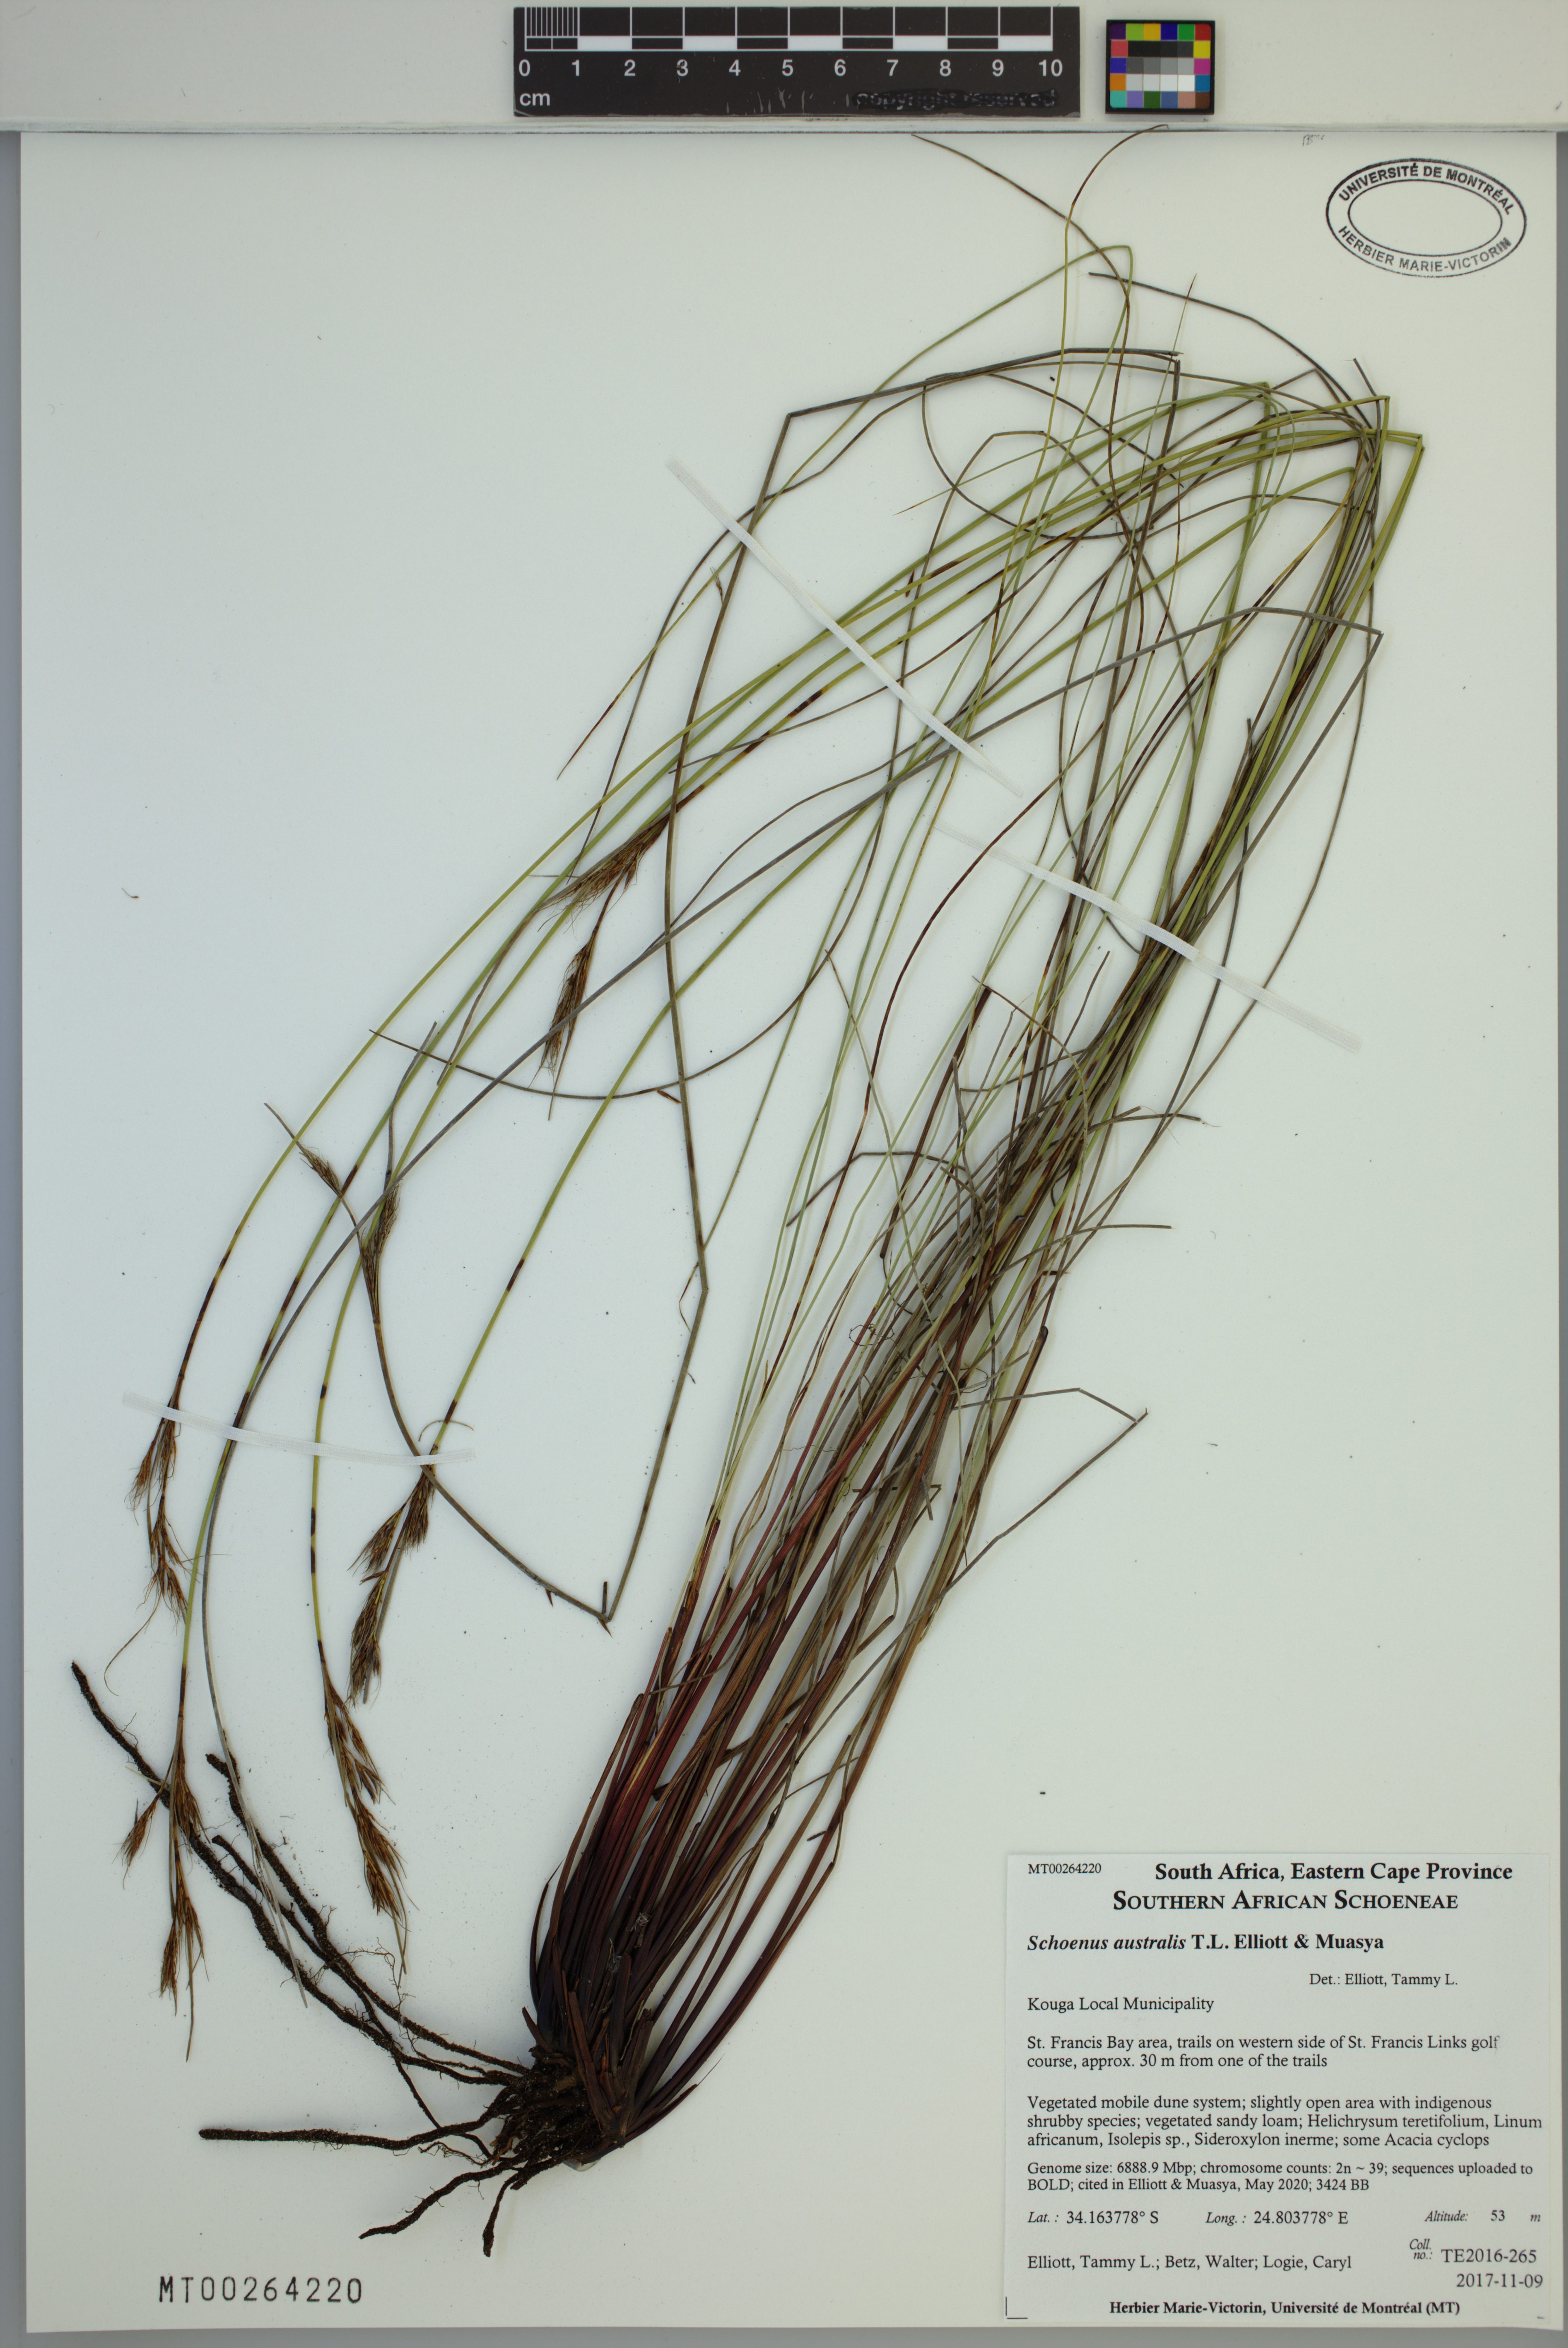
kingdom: Plantae
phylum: Tracheophyta
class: Liliopsida
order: Poales
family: Cyperaceae
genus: Schoenus
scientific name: Schoenus australis
